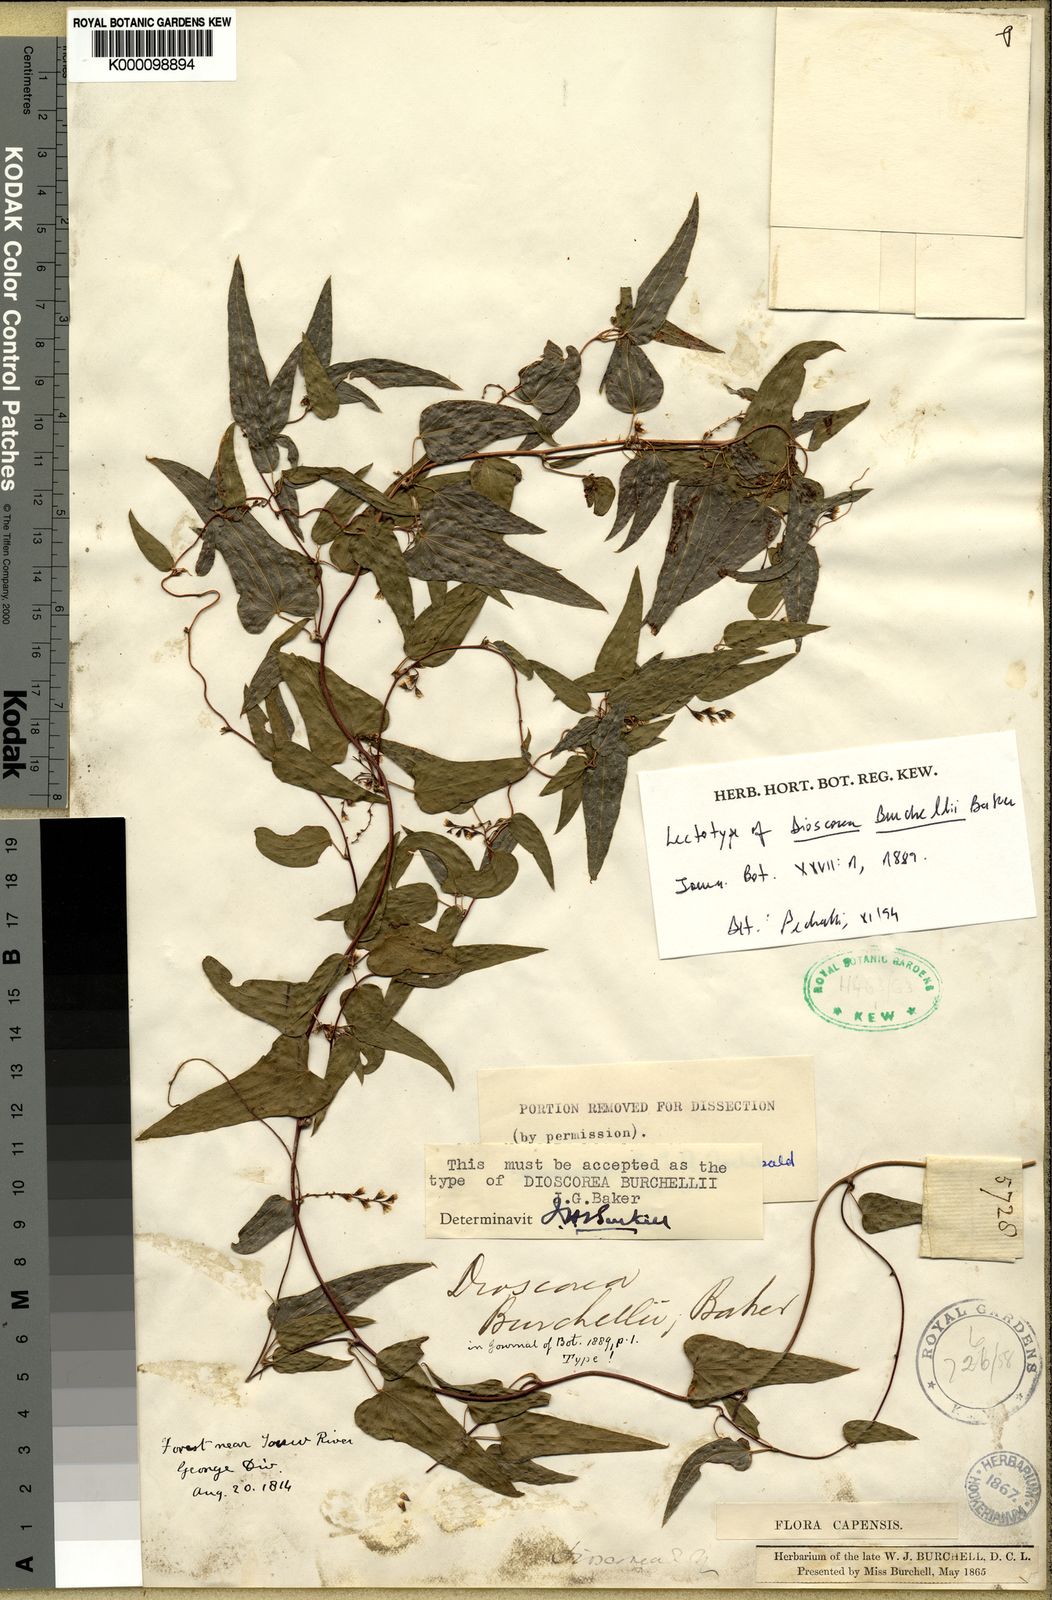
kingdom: Plantae
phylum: Tracheophyta
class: Liliopsida
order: Dioscoreales
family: Dioscoreaceae
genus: Dioscorea
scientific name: Dioscorea burchellii
